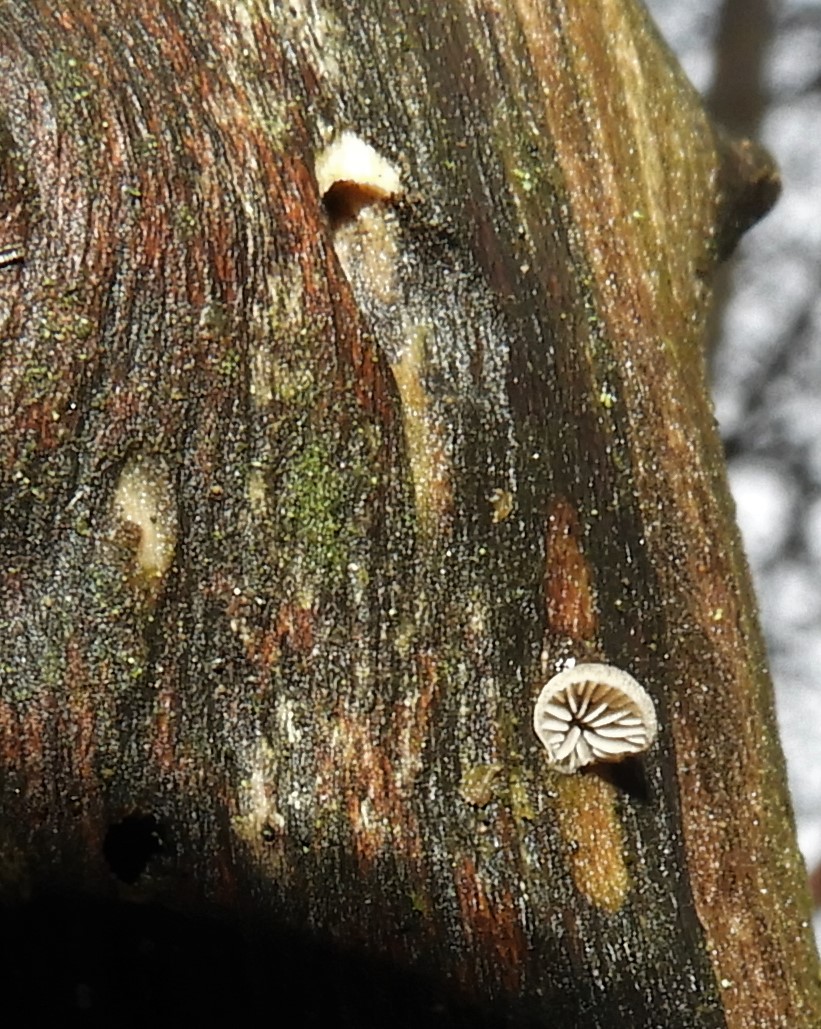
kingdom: Fungi
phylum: Basidiomycota
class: Agaricomycetes
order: Agaricales
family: Pleurotaceae
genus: Resupinatus
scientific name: Resupinatus trichotis
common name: mørkfiltet barkhat
